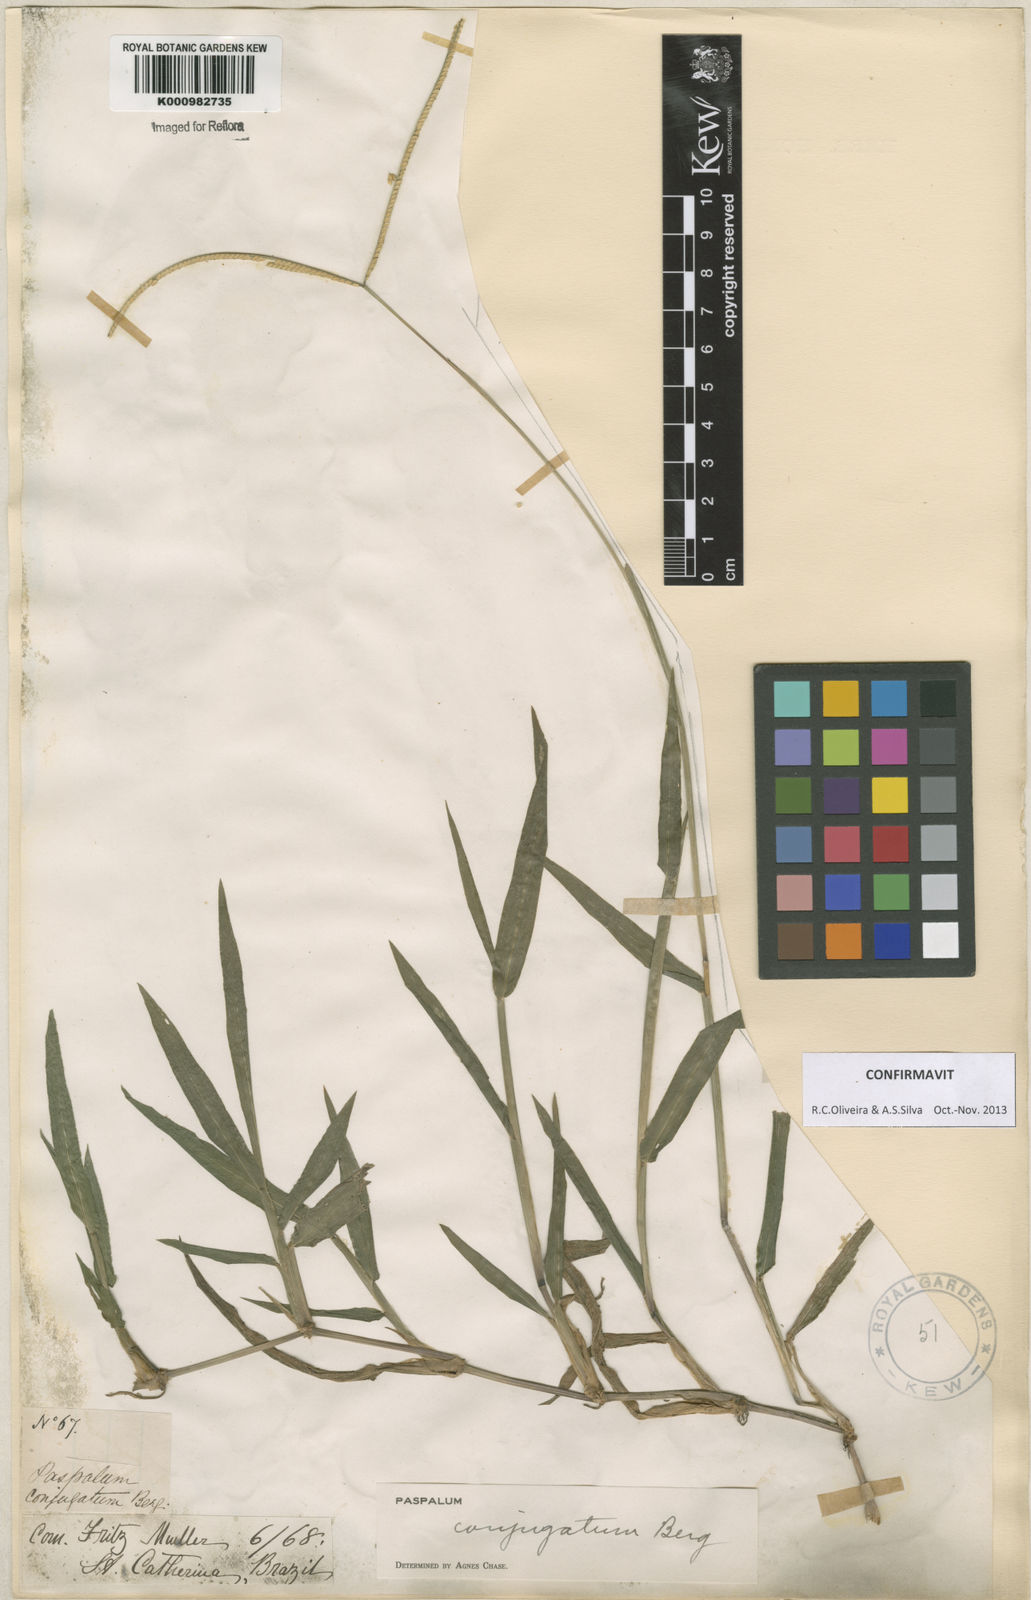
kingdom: Plantae
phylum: Tracheophyta
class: Liliopsida
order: Poales
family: Poaceae
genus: Paspalum
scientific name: Paspalum conjugatum
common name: Hilograss
